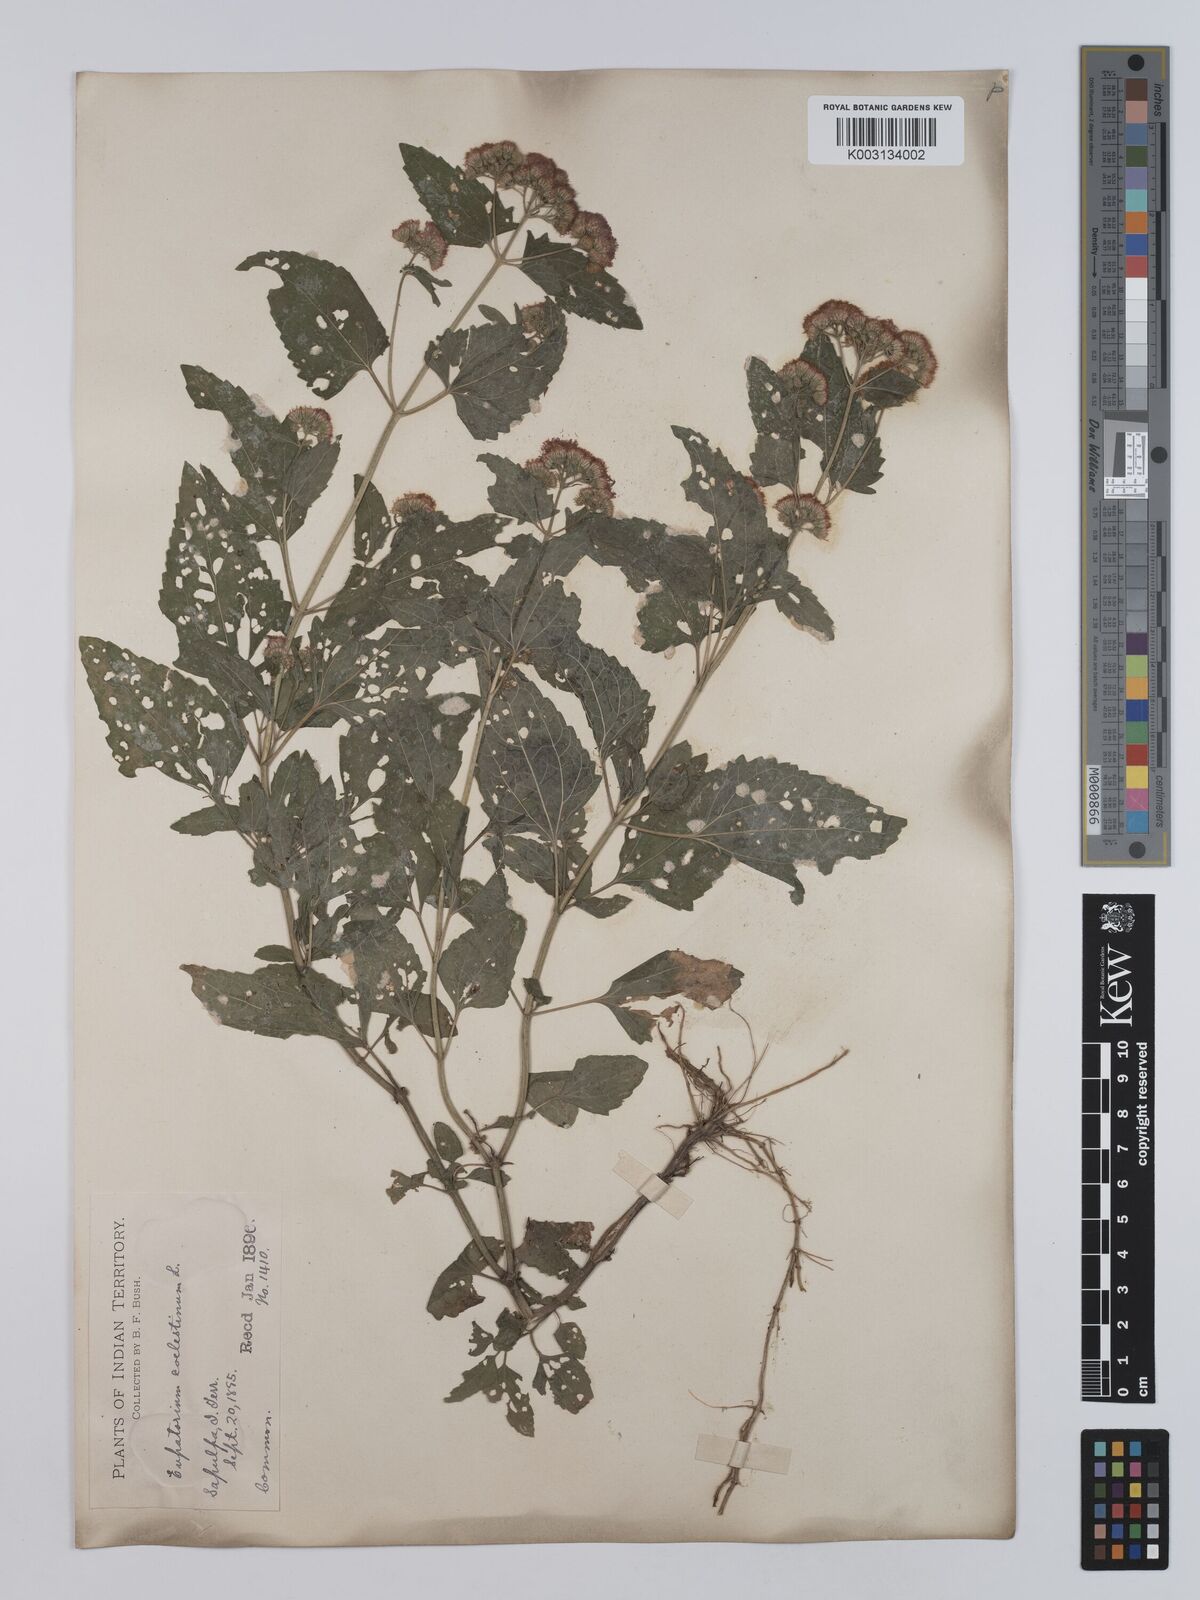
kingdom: Plantae
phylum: Tracheophyta
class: Magnoliopsida
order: Asterales
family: Asteraceae
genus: Conoclinium
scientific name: Conoclinium coelestinum
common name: Blue mistflower
